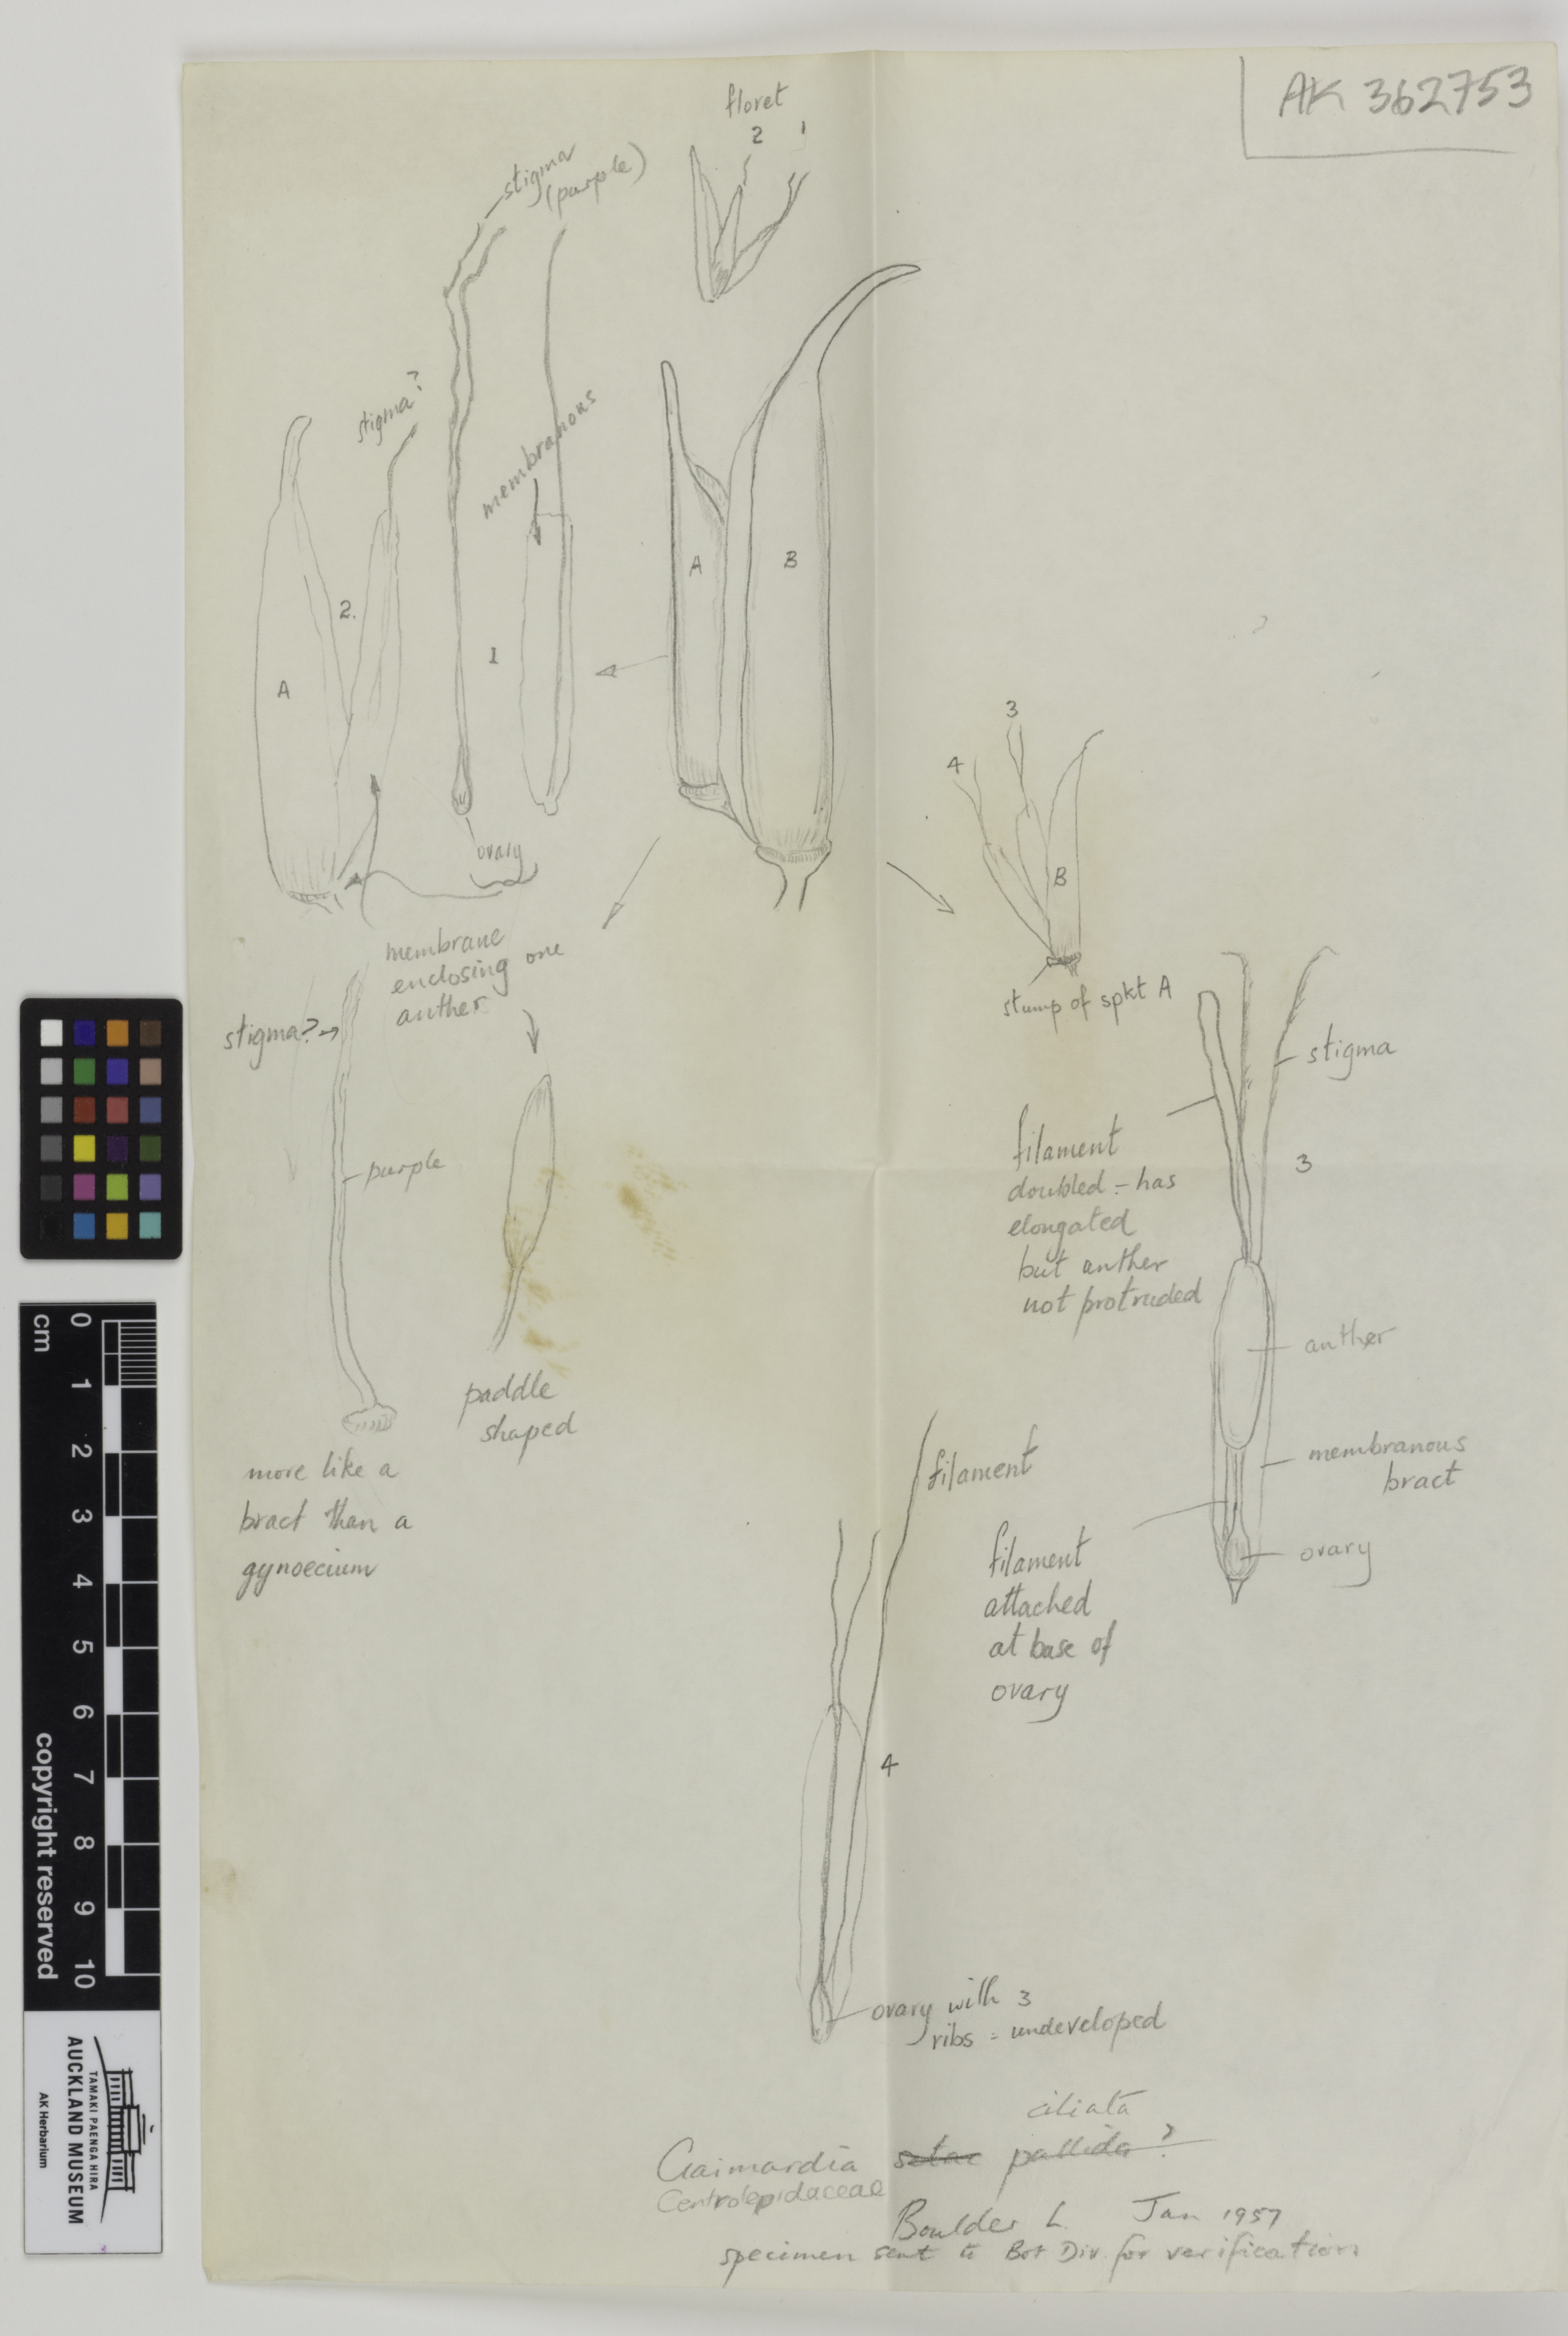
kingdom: Plantae
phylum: Tracheophyta
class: Liliopsida
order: Poales
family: Restionaceae
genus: Centrolepis
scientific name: Centrolepis ciliata
